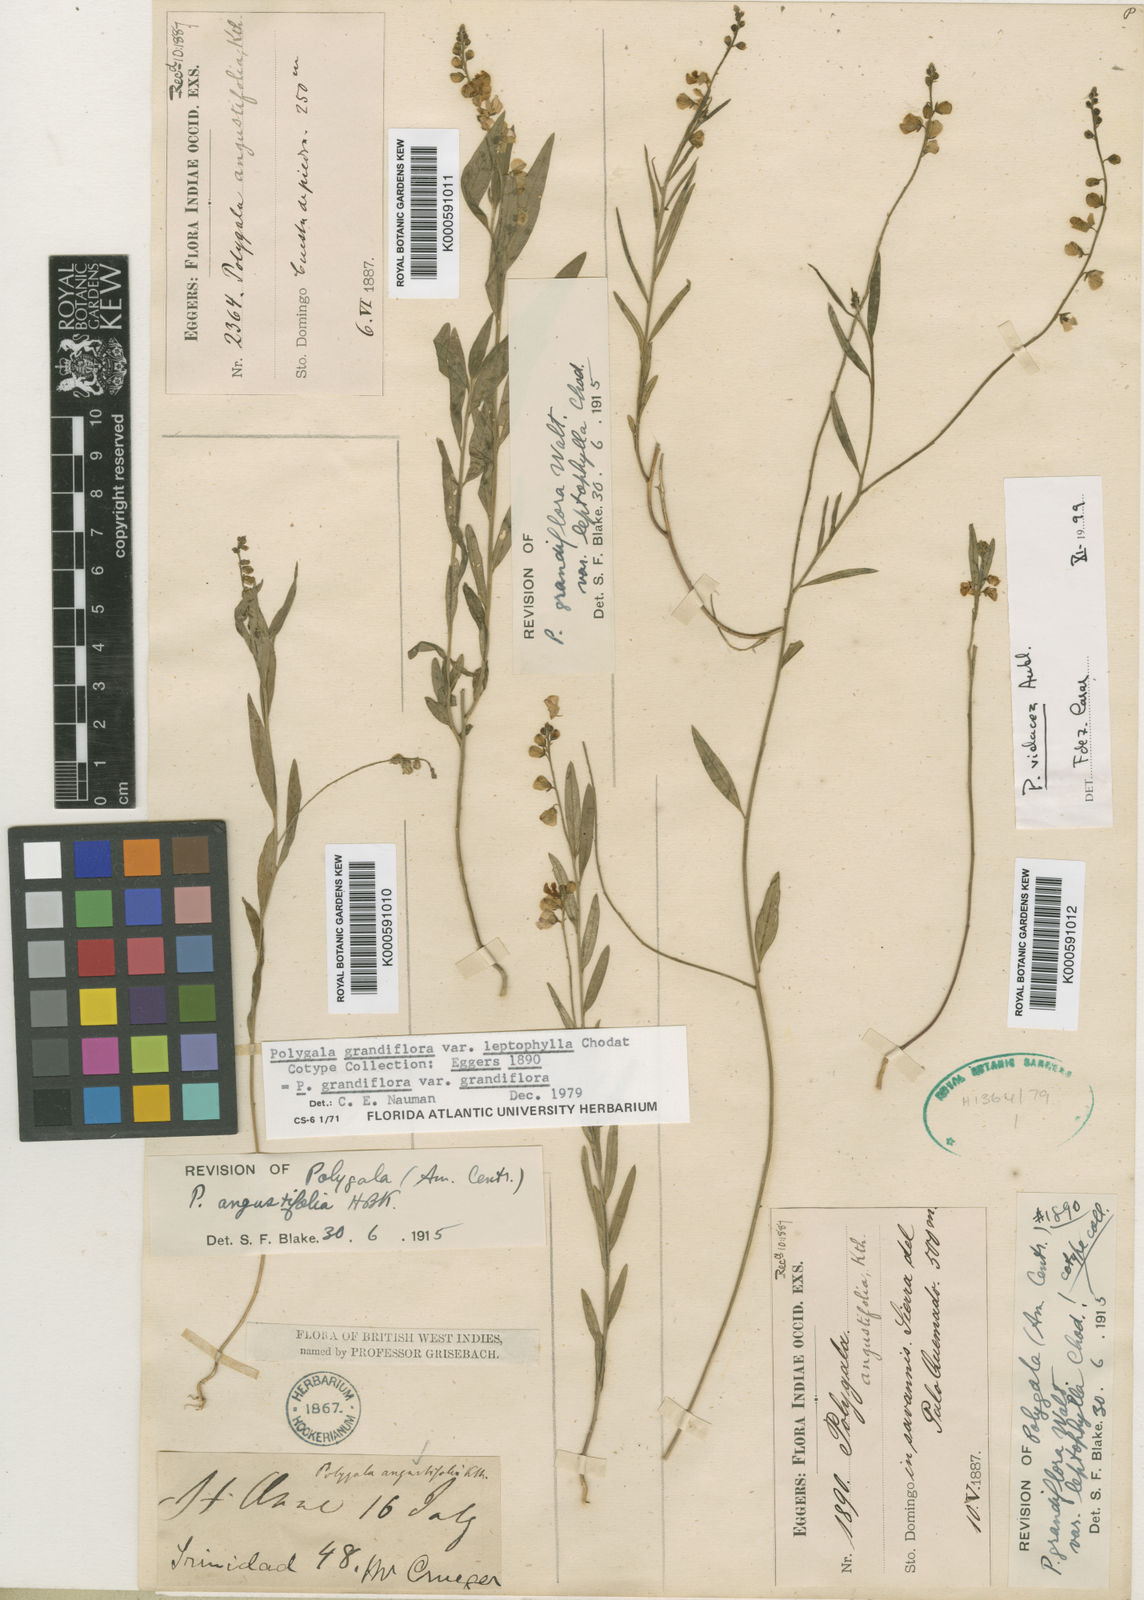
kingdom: Plantae
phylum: Tracheophyta
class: Magnoliopsida
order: Fabales
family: Polygalaceae
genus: Asemeia
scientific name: Asemeia violacea
